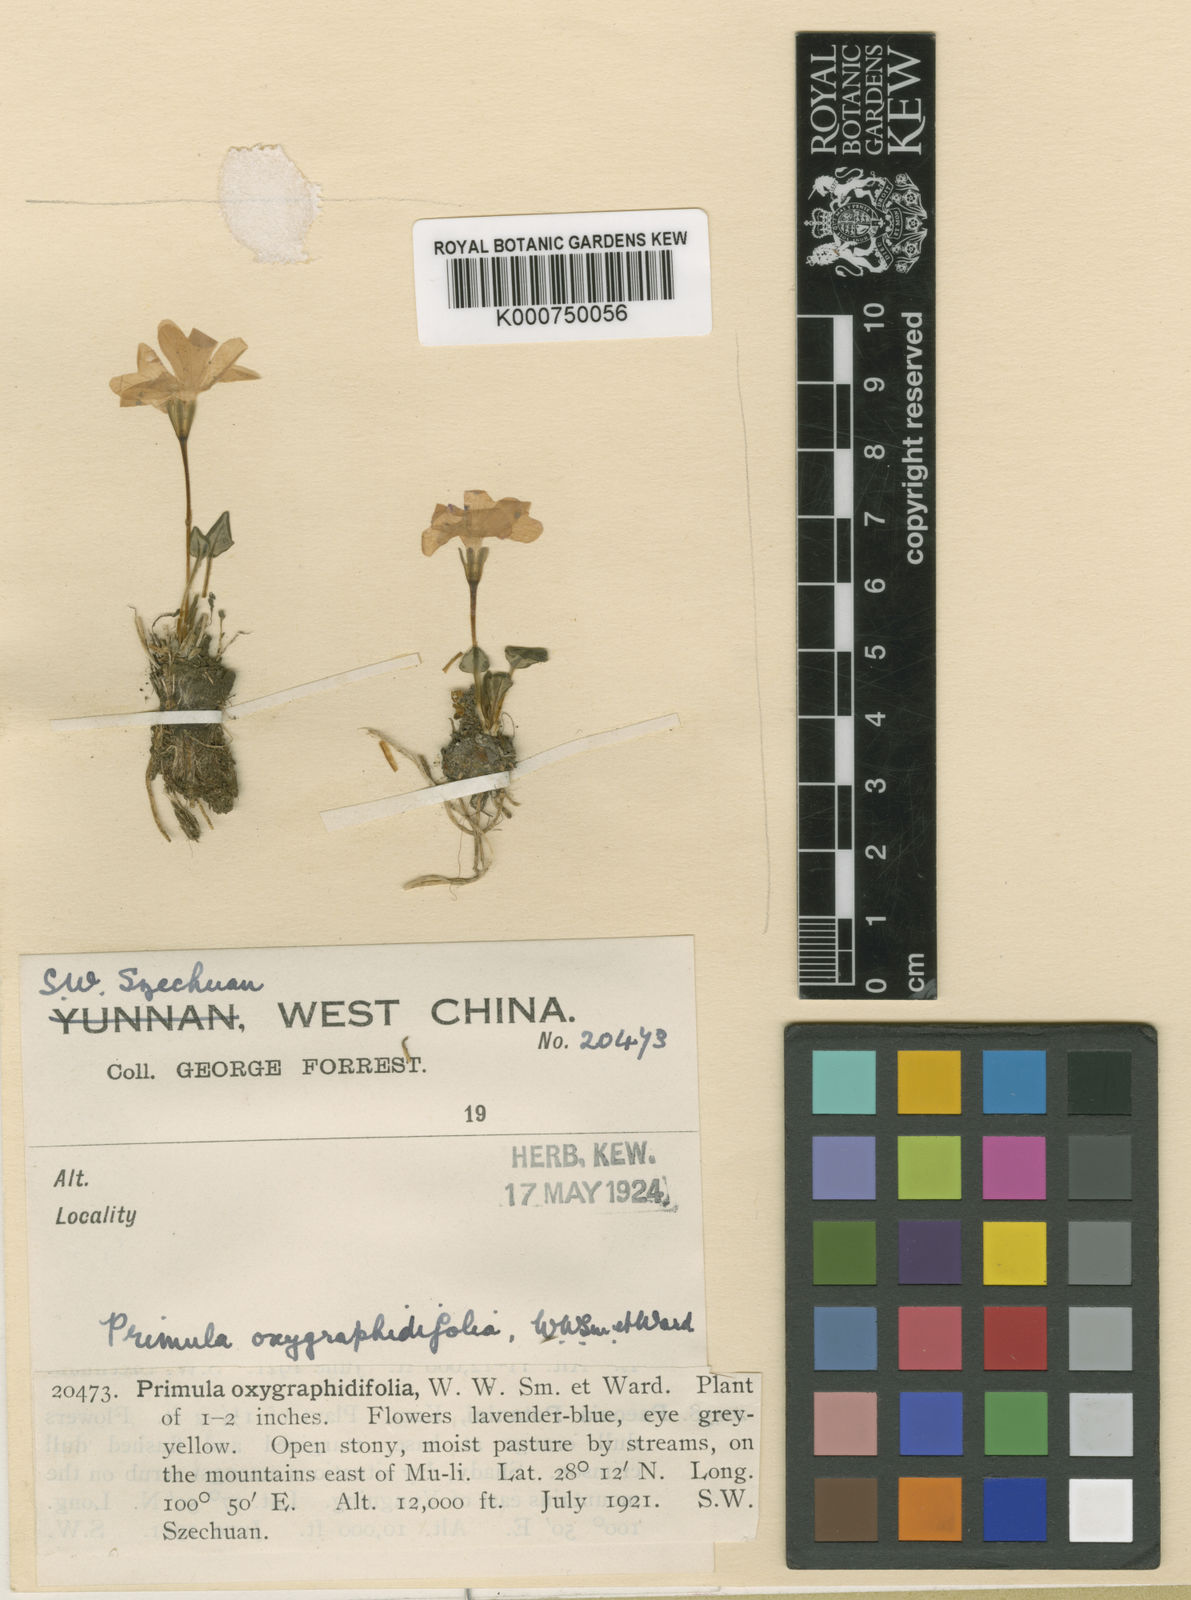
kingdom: Plantae
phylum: Tracheophyta
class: Magnoliopsida
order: Ericales
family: Primulaceae
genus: Primula
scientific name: Primula
